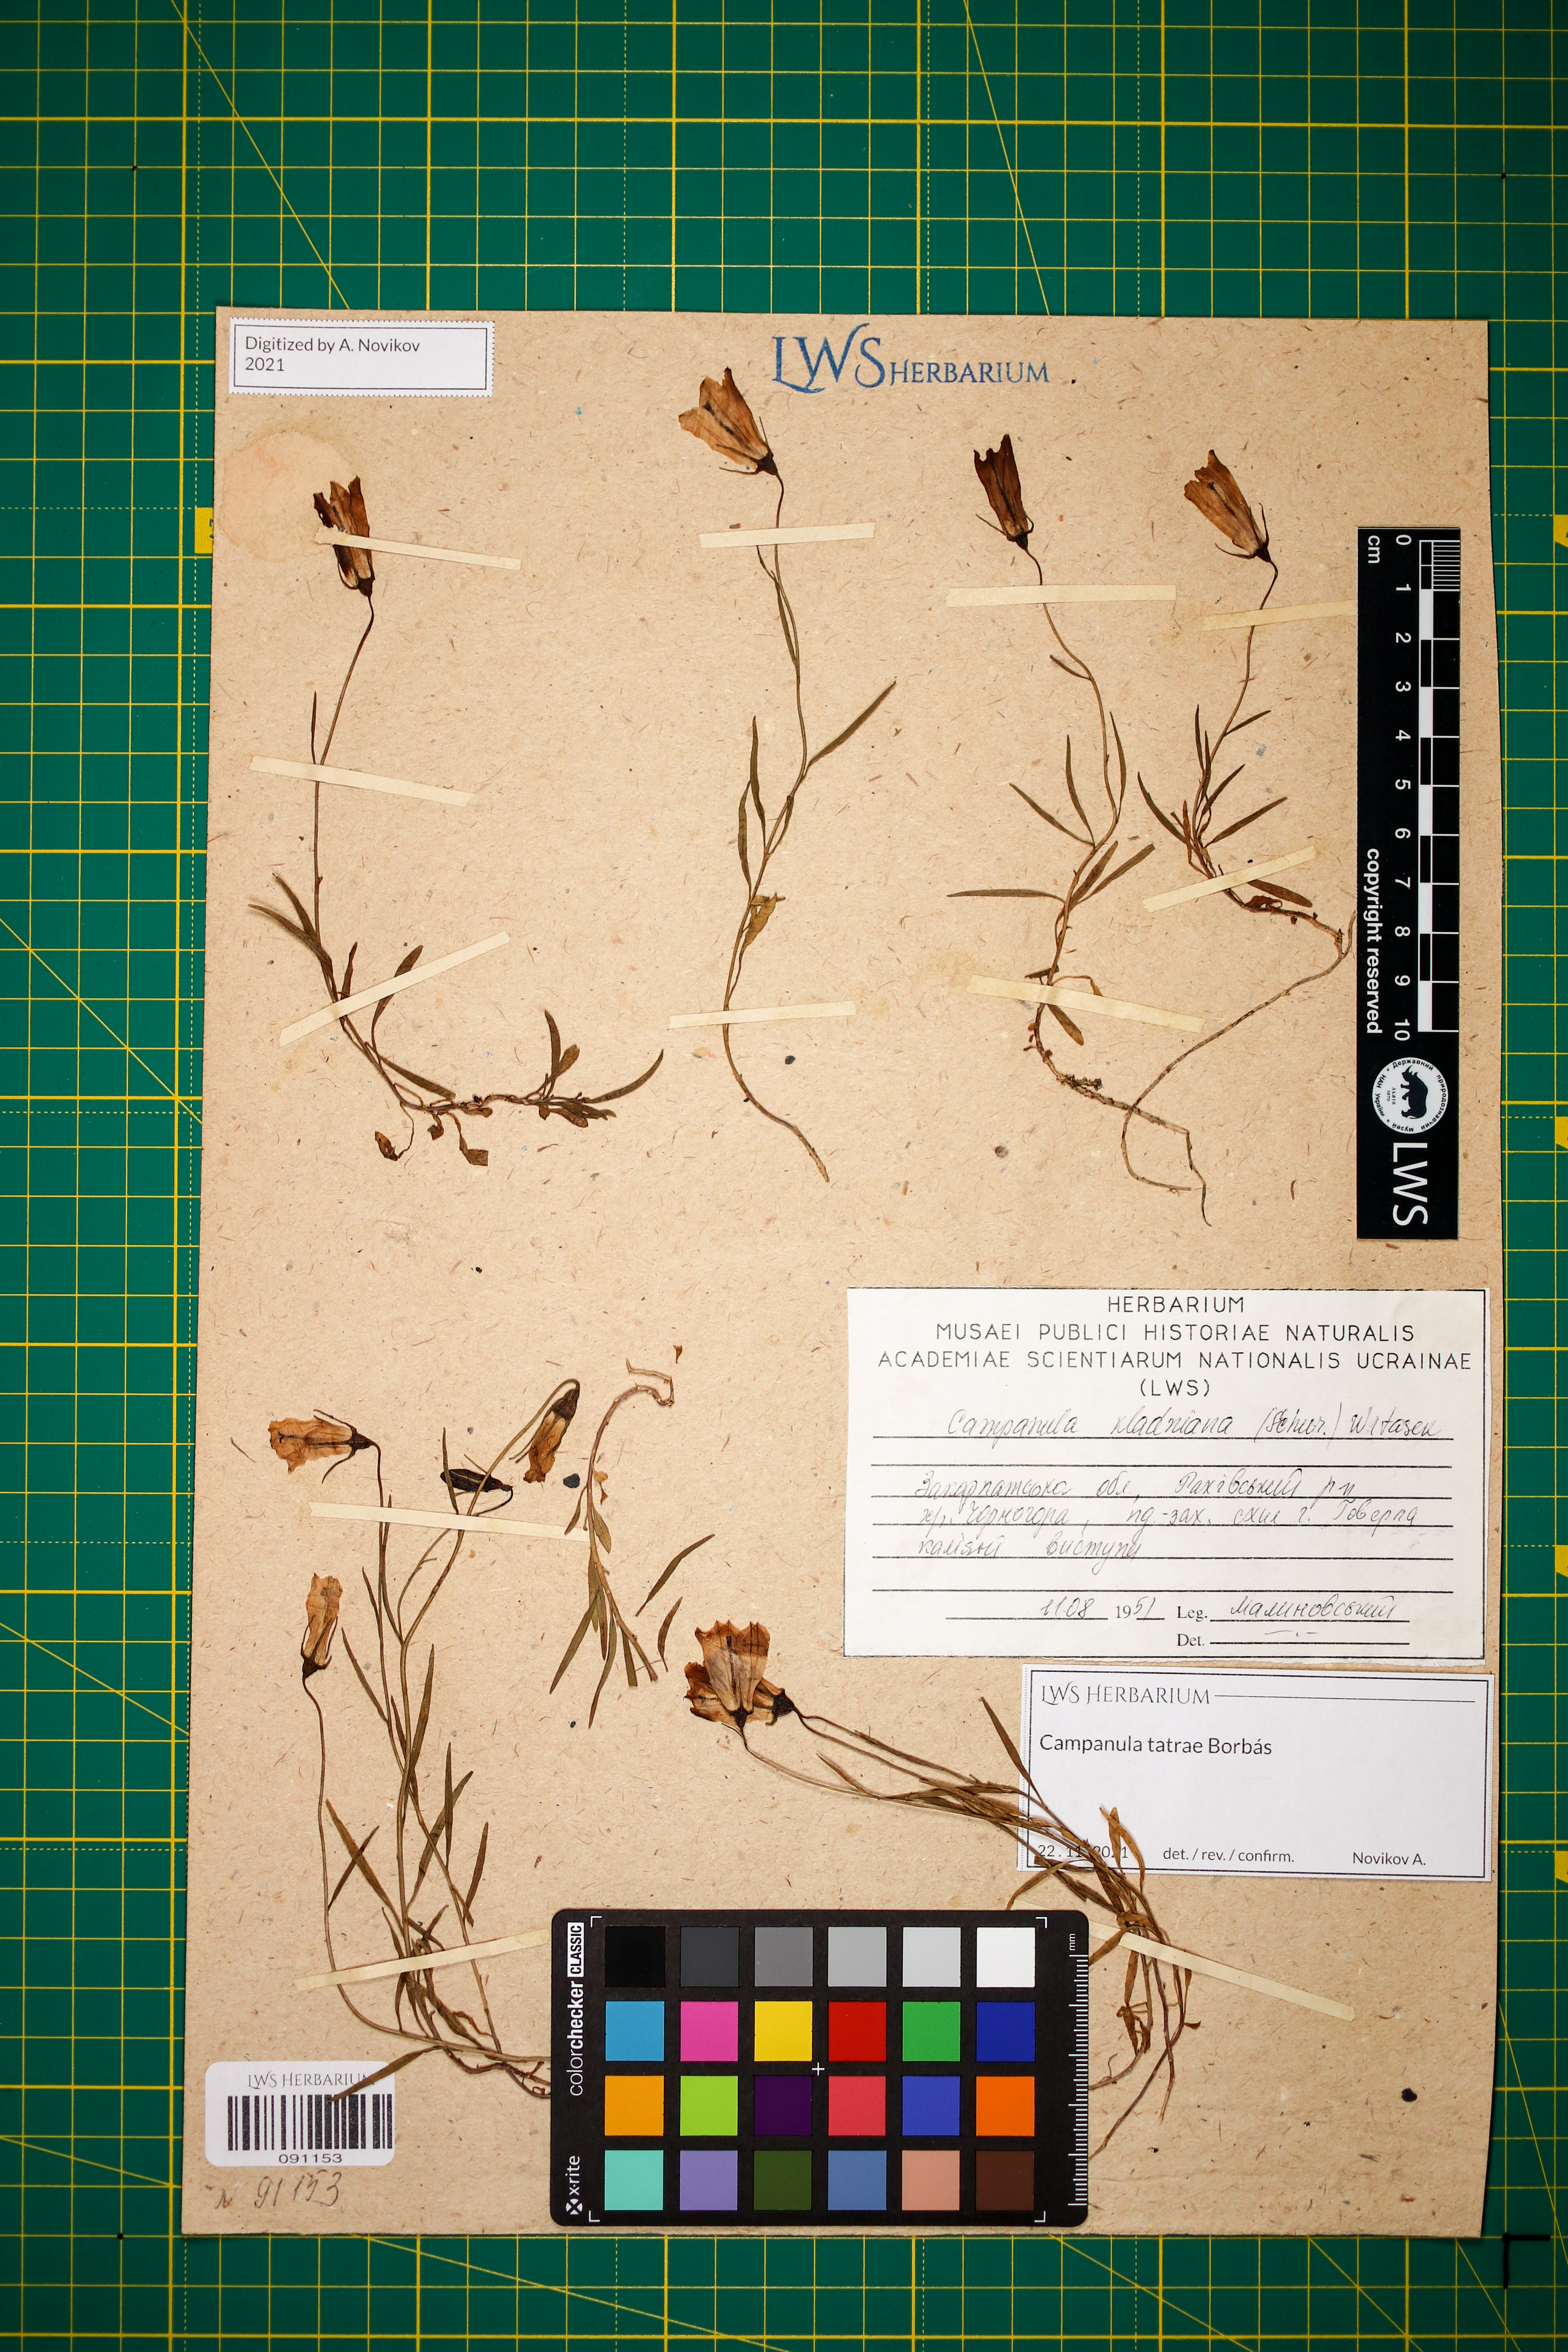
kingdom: Plantae
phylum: Tracheophyta
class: Magnoliopsida
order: Asterales
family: Campanulaceae
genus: Campanula
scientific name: Campanula kladniana
